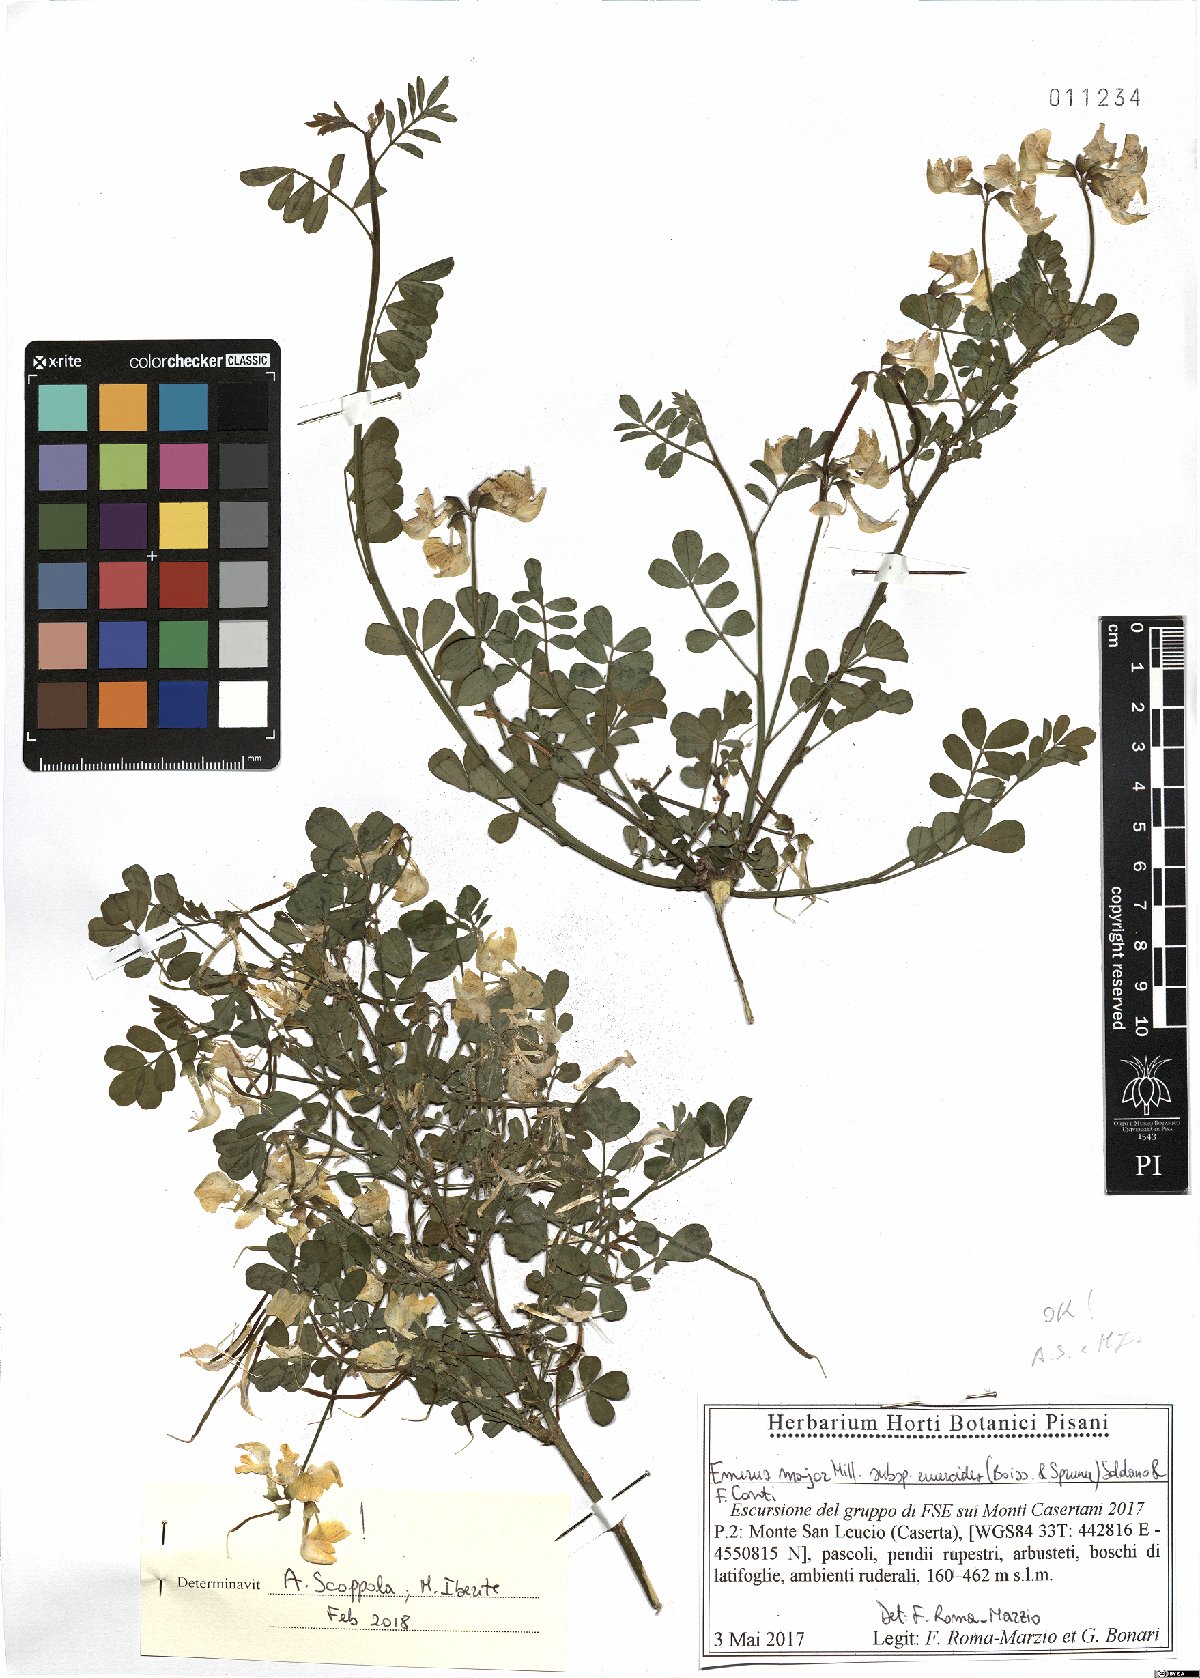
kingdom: Plantae
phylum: Tracheophyta
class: Magnoliopsida
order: Fabales
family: Fabaceae
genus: Hippocrepis
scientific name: Hippocrepis emerus
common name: Scorpion senna
